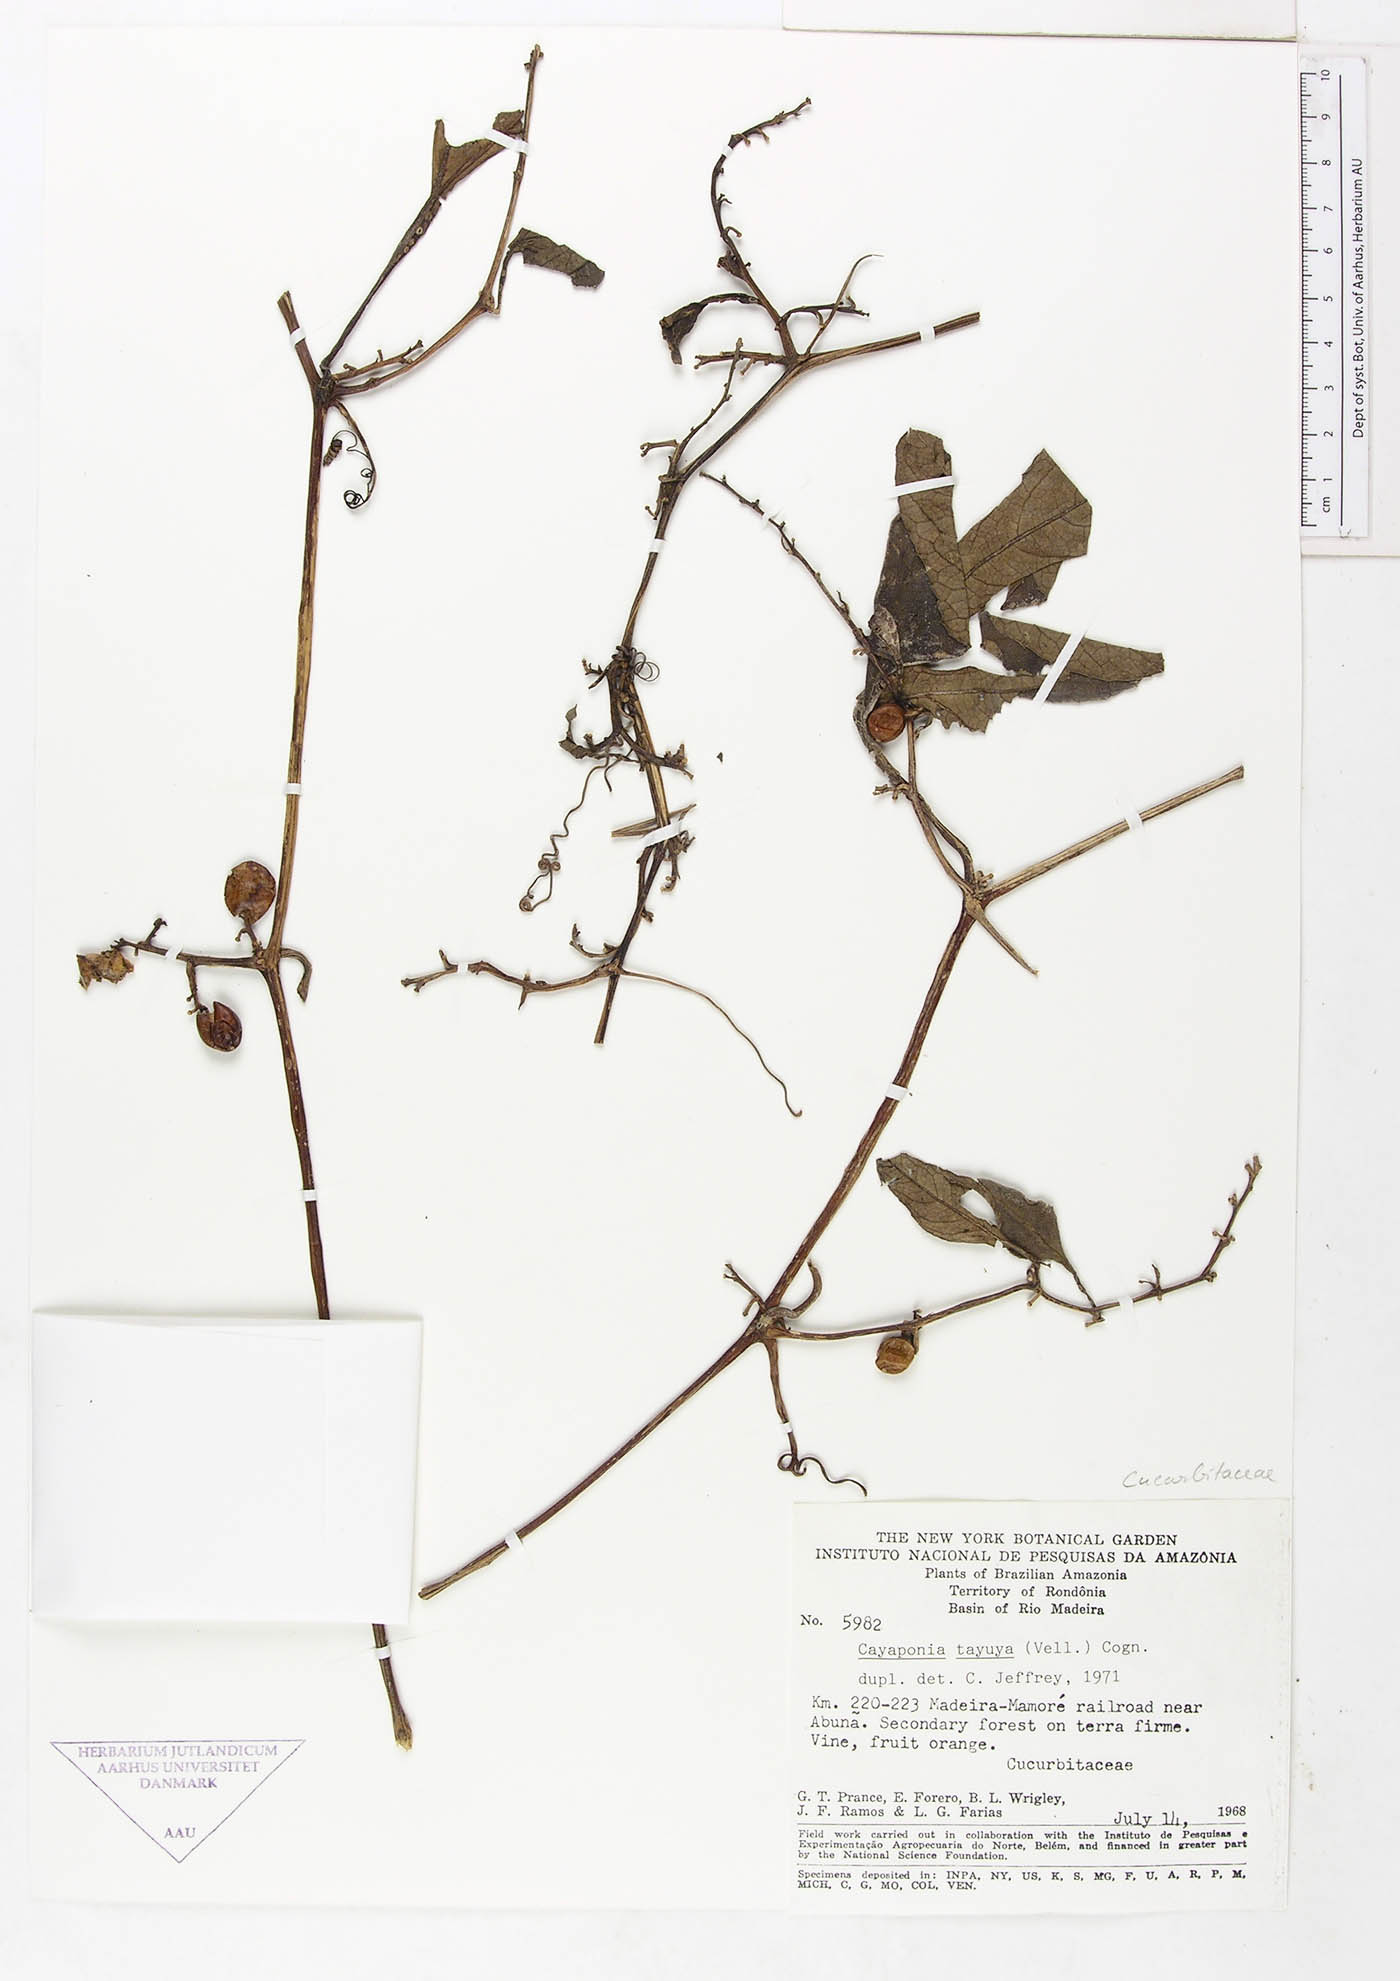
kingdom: Plantae
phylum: Tracheophyta
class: Magnoliopsida
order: Cucurbitales
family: Cucurbitaceae
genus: Cayaponia
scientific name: Cayaponia
